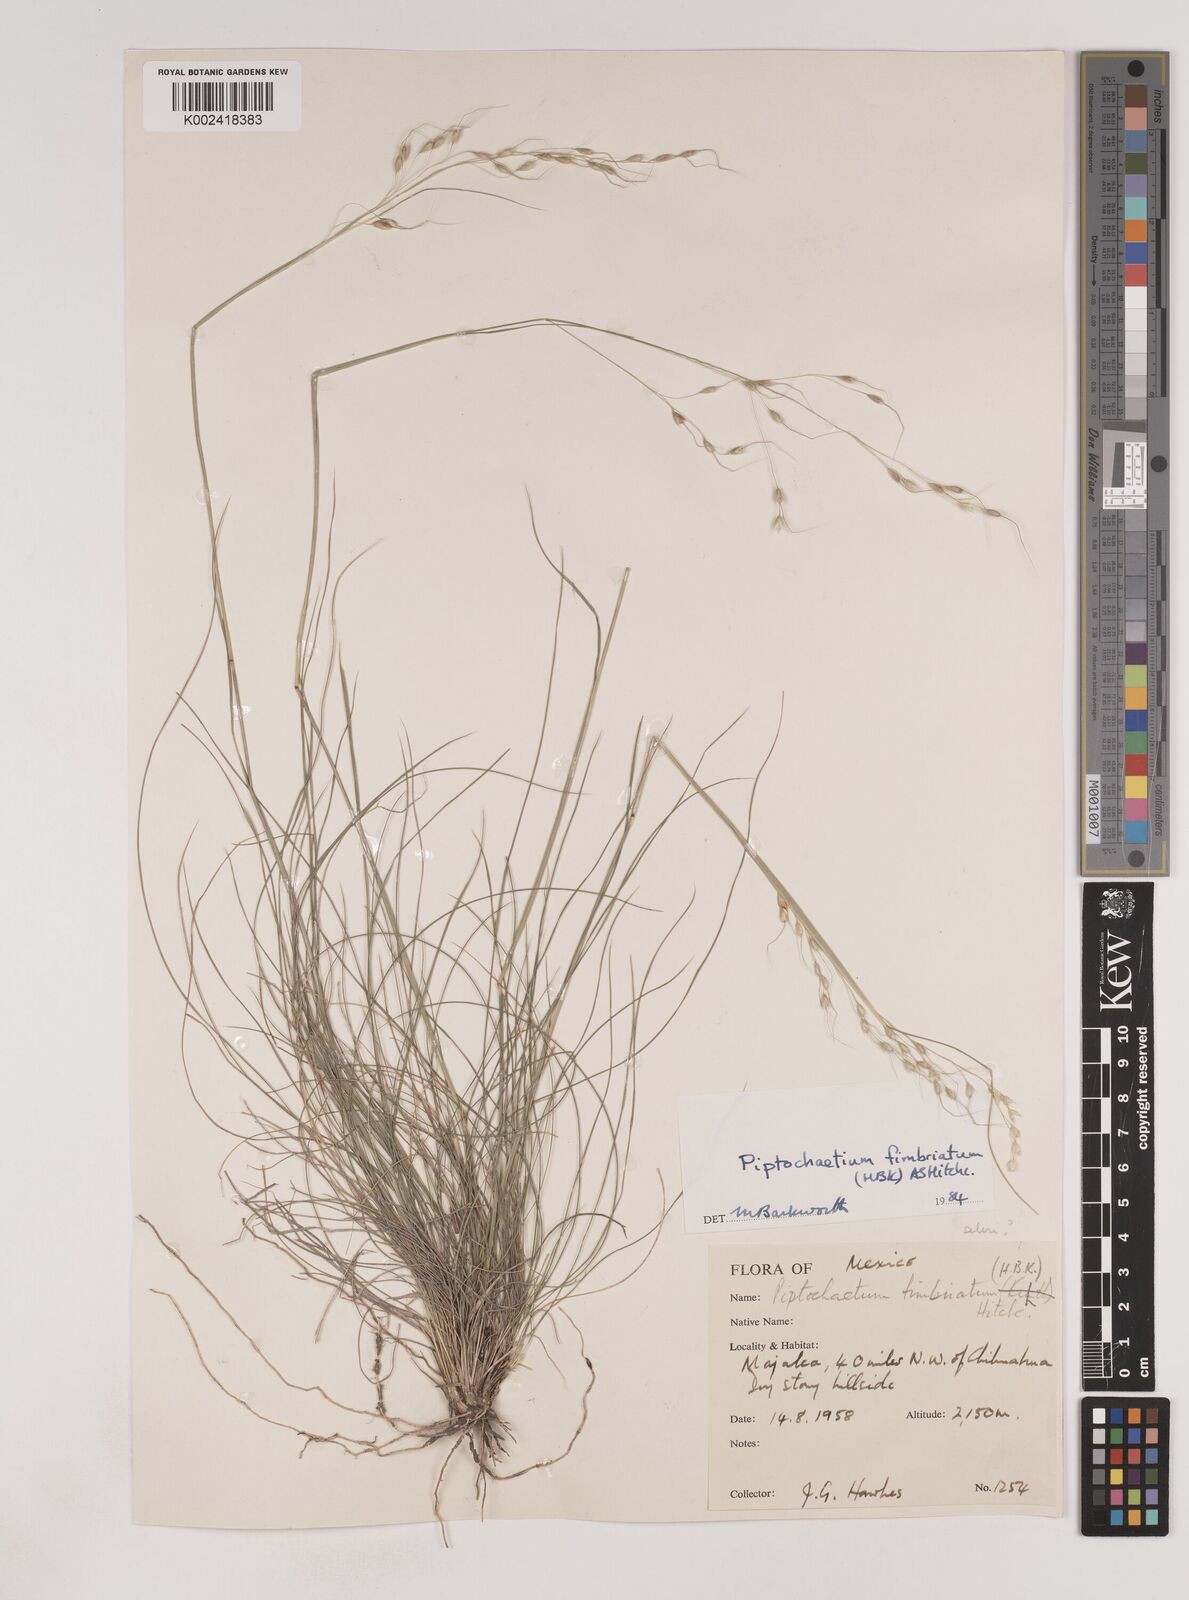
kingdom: Plantae
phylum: Tracheophyta
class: Liliopsida
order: Poales
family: Poaceae
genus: Piptochaetium
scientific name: Piptochaetium fimbriatum
